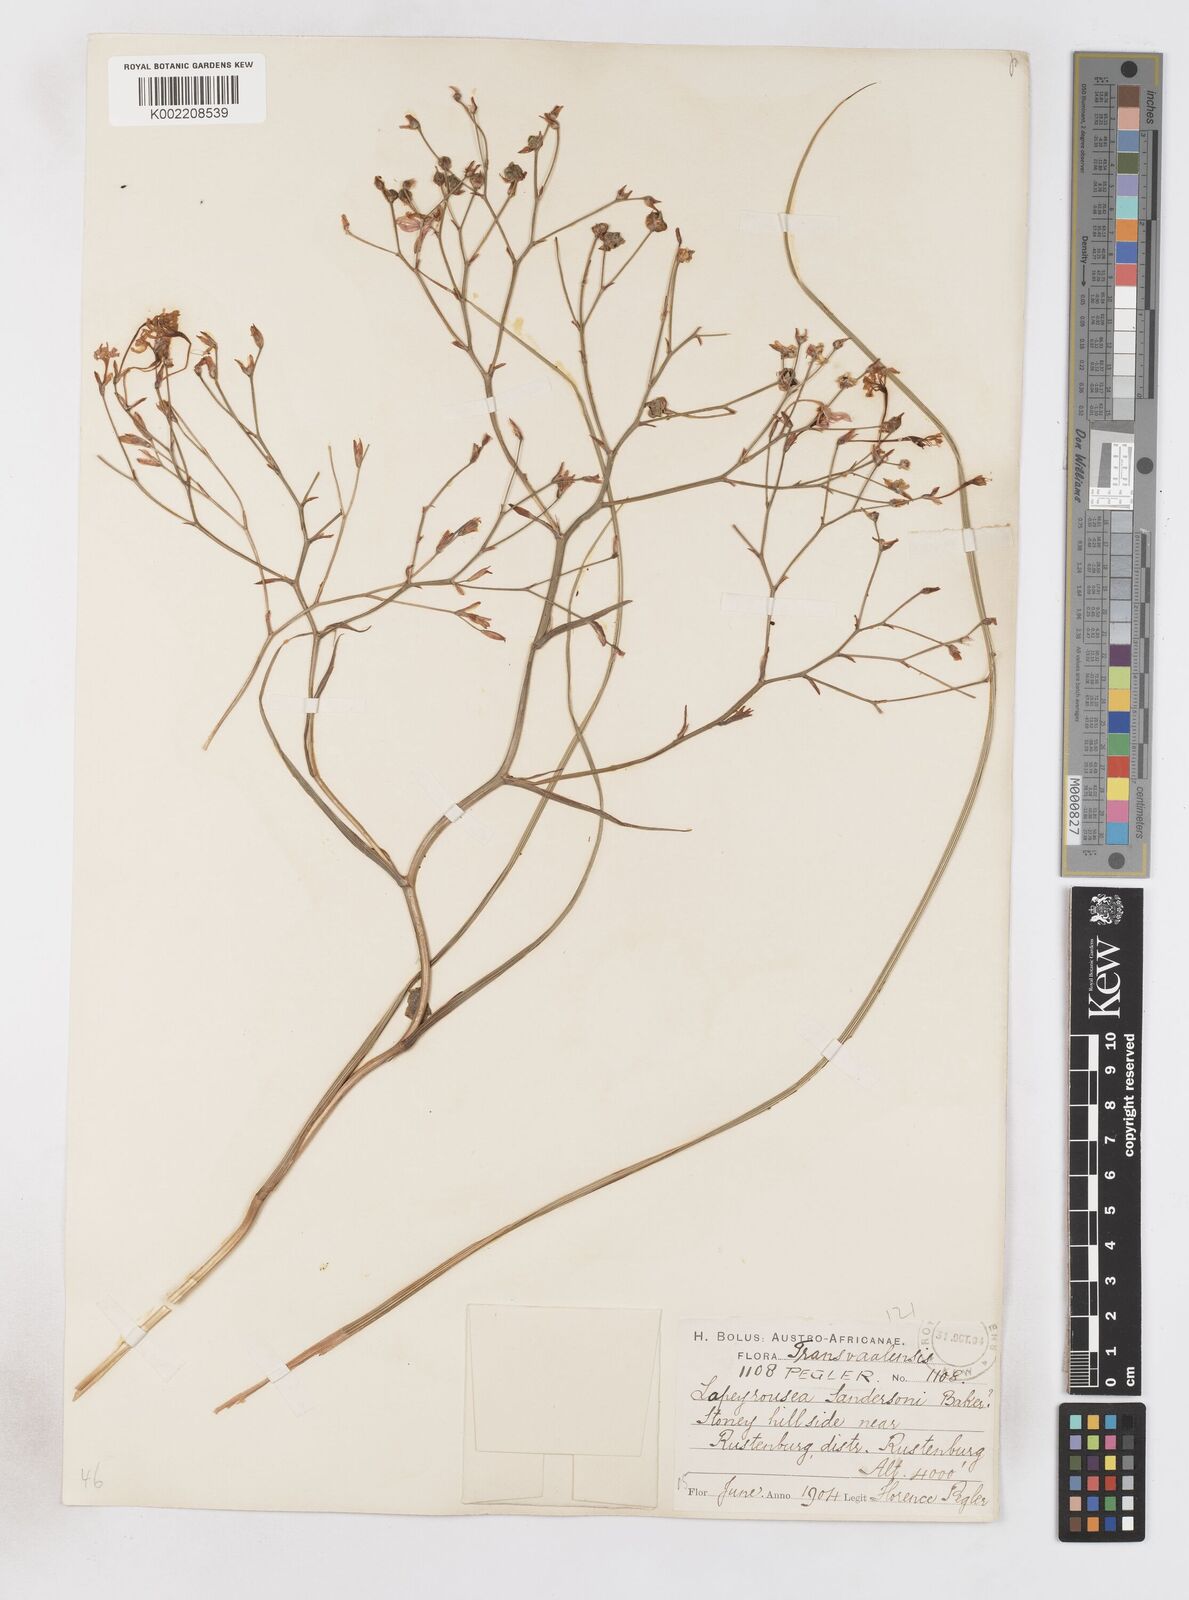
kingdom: Plantae
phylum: Tracheophyta
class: Liliopsida
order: Asparagales
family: Iridaceae
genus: Afrosolen
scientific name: Afrosolen sandersonii
